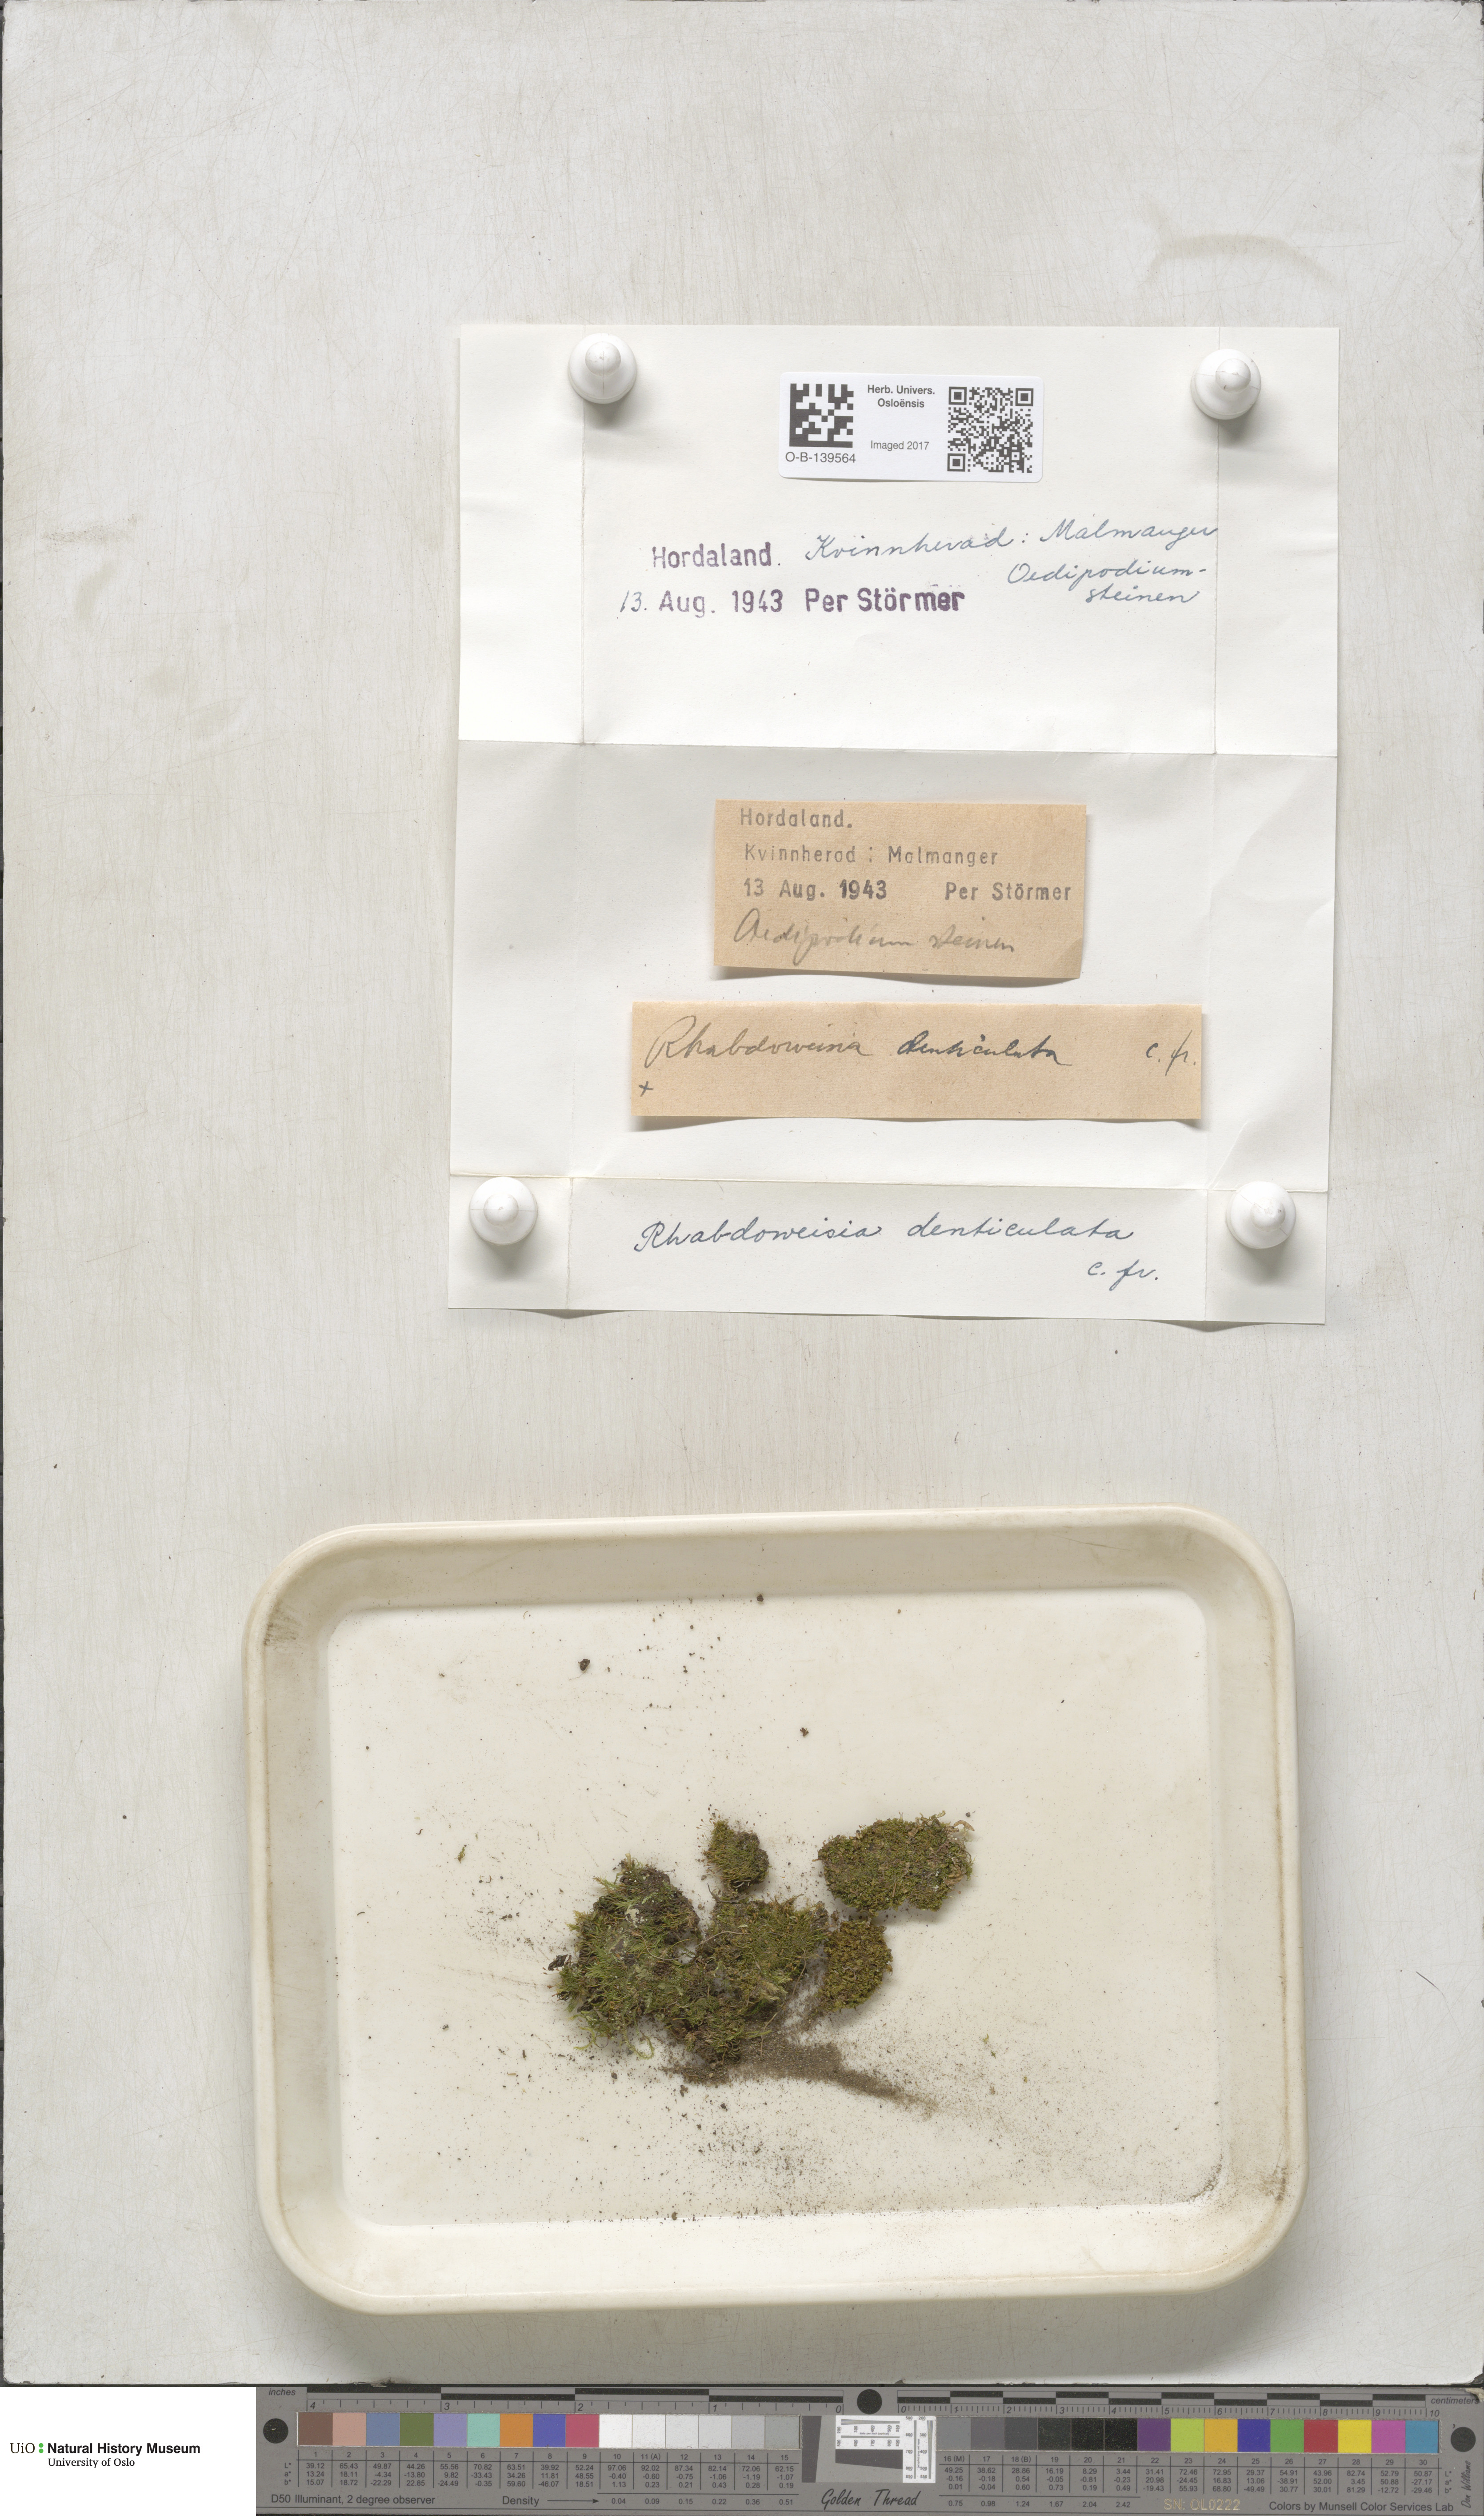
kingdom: Plantae
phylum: Bryophyta
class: Bryopsida
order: Dicranales
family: Rhabdoweisiaceae
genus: Rhabdoweisia
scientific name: Rhabdoweisia crispata
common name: Fine-toothed streak moss
